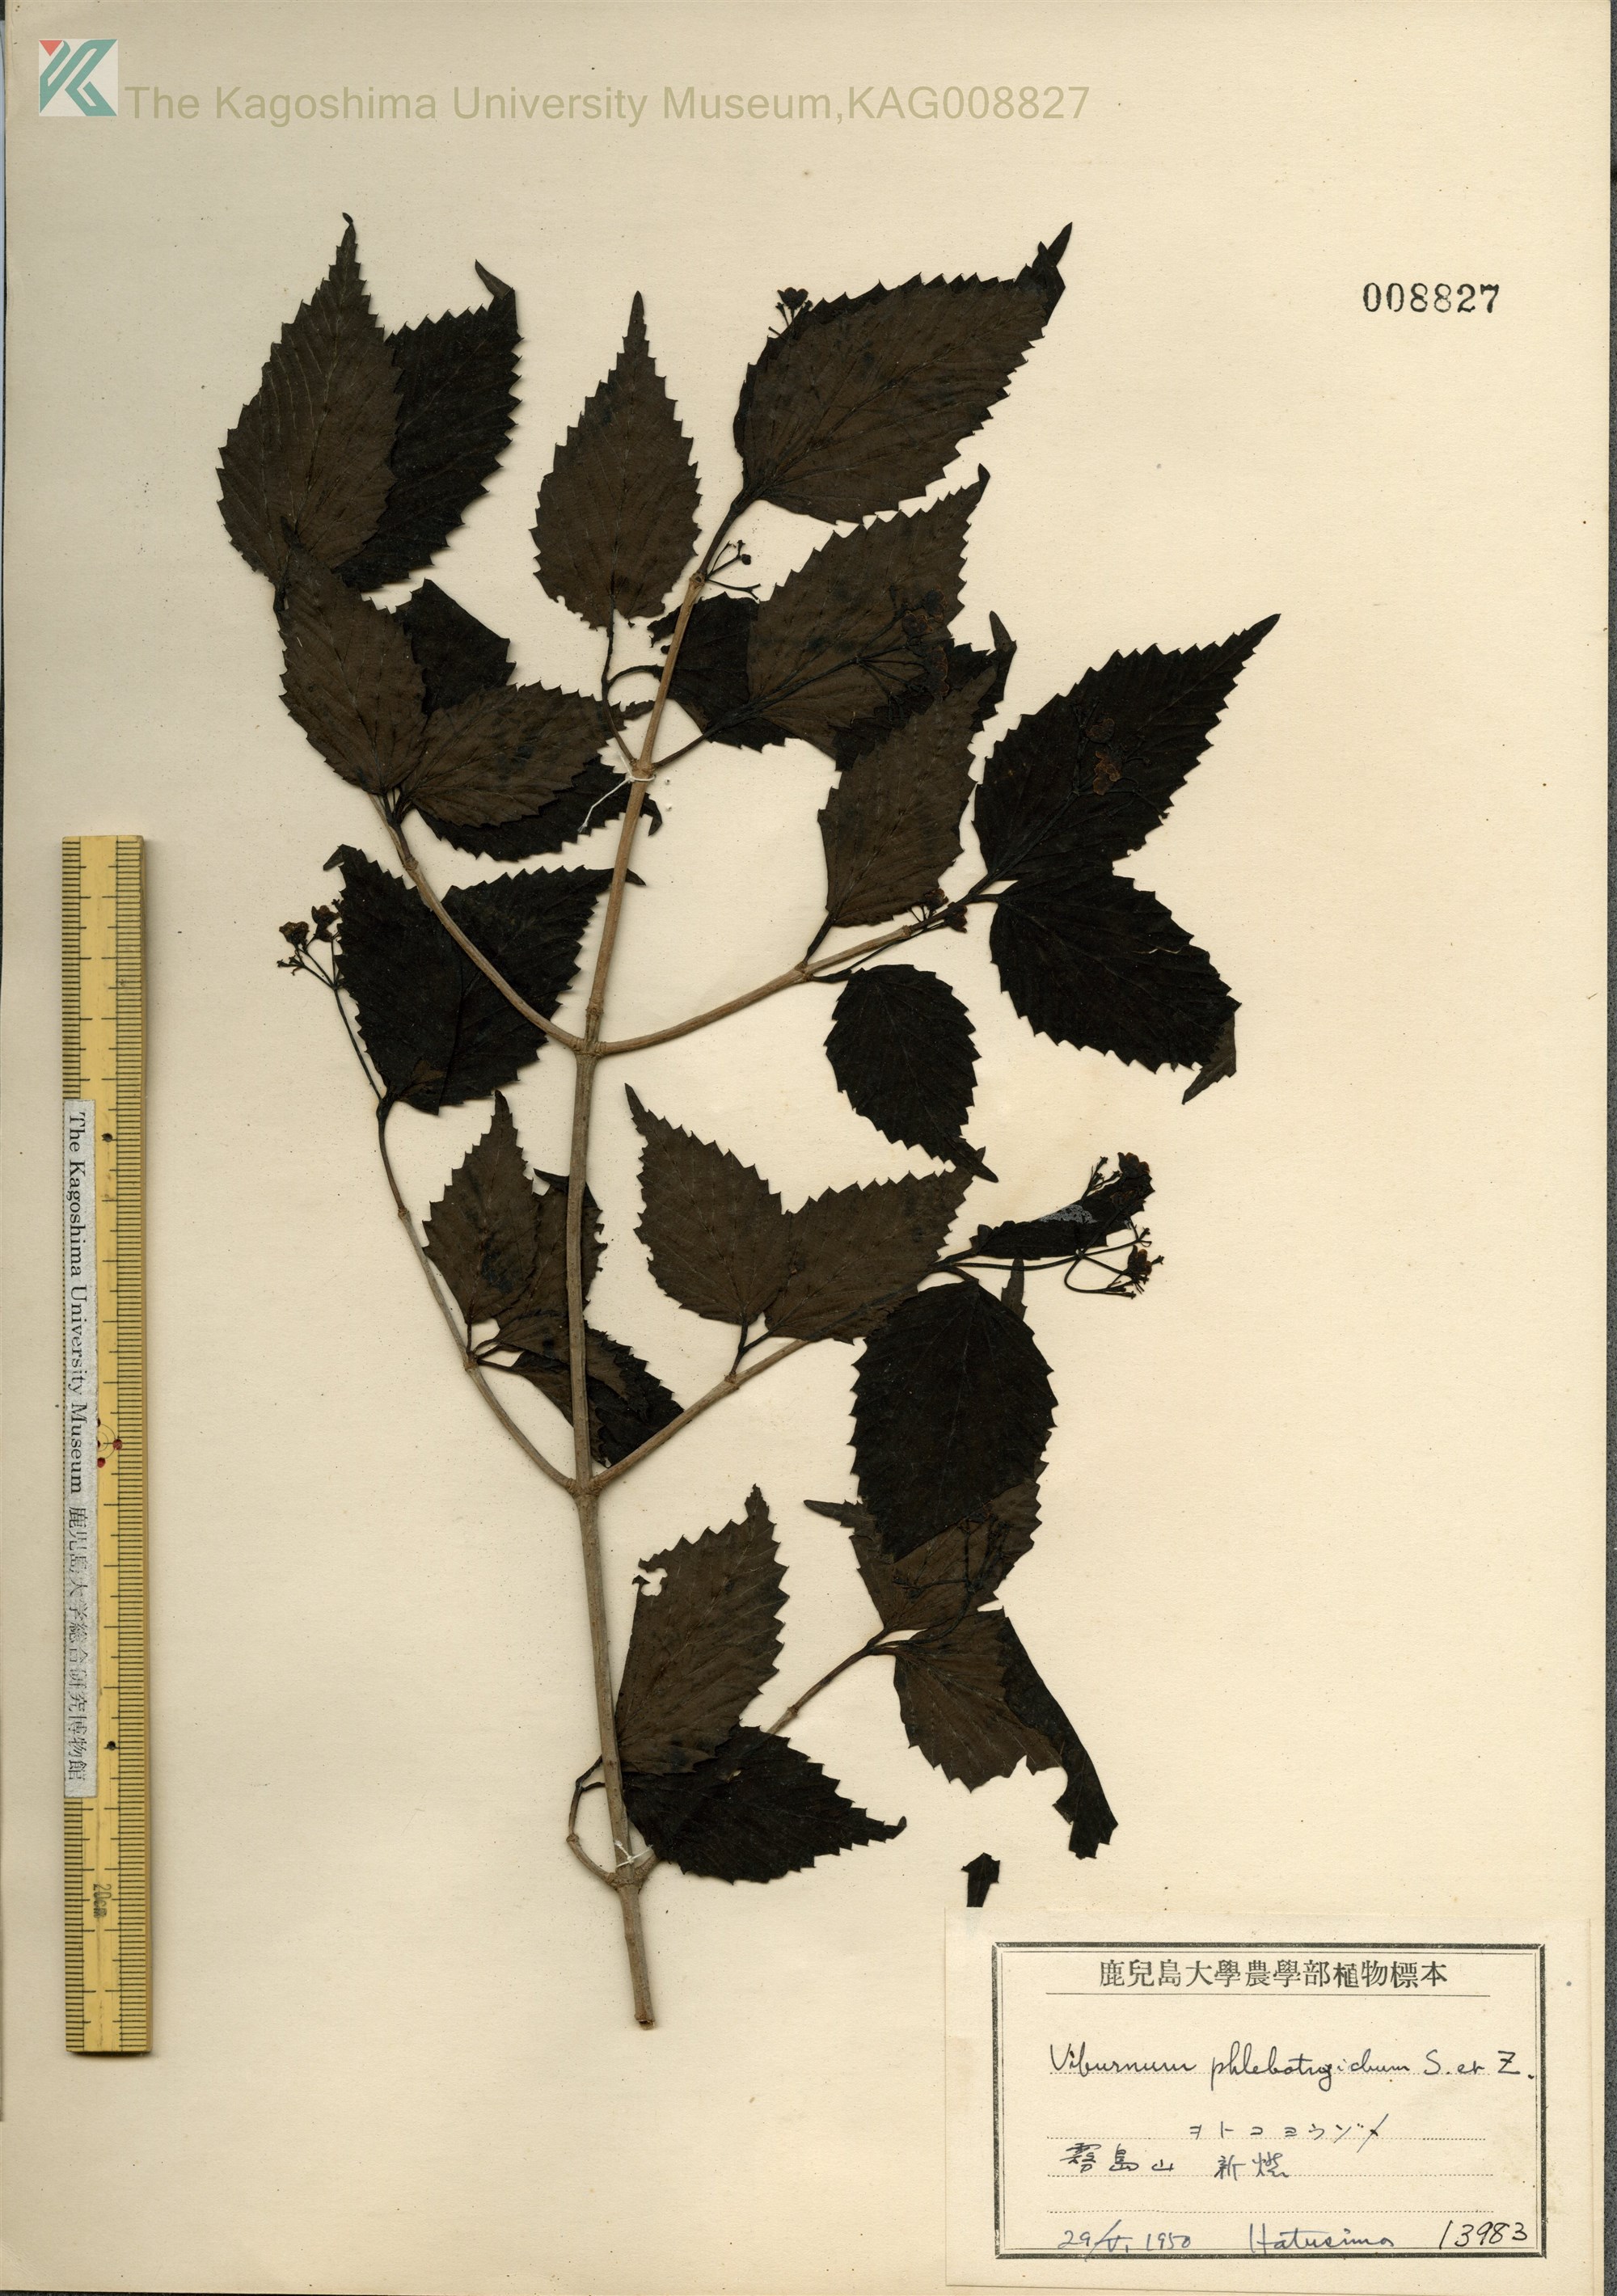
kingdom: Plantae
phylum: Tracheophyta
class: Magnoliopsida
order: Dipsacales
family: Viburnaceae
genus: Viburnum
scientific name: Viburnum phlebotrichum
